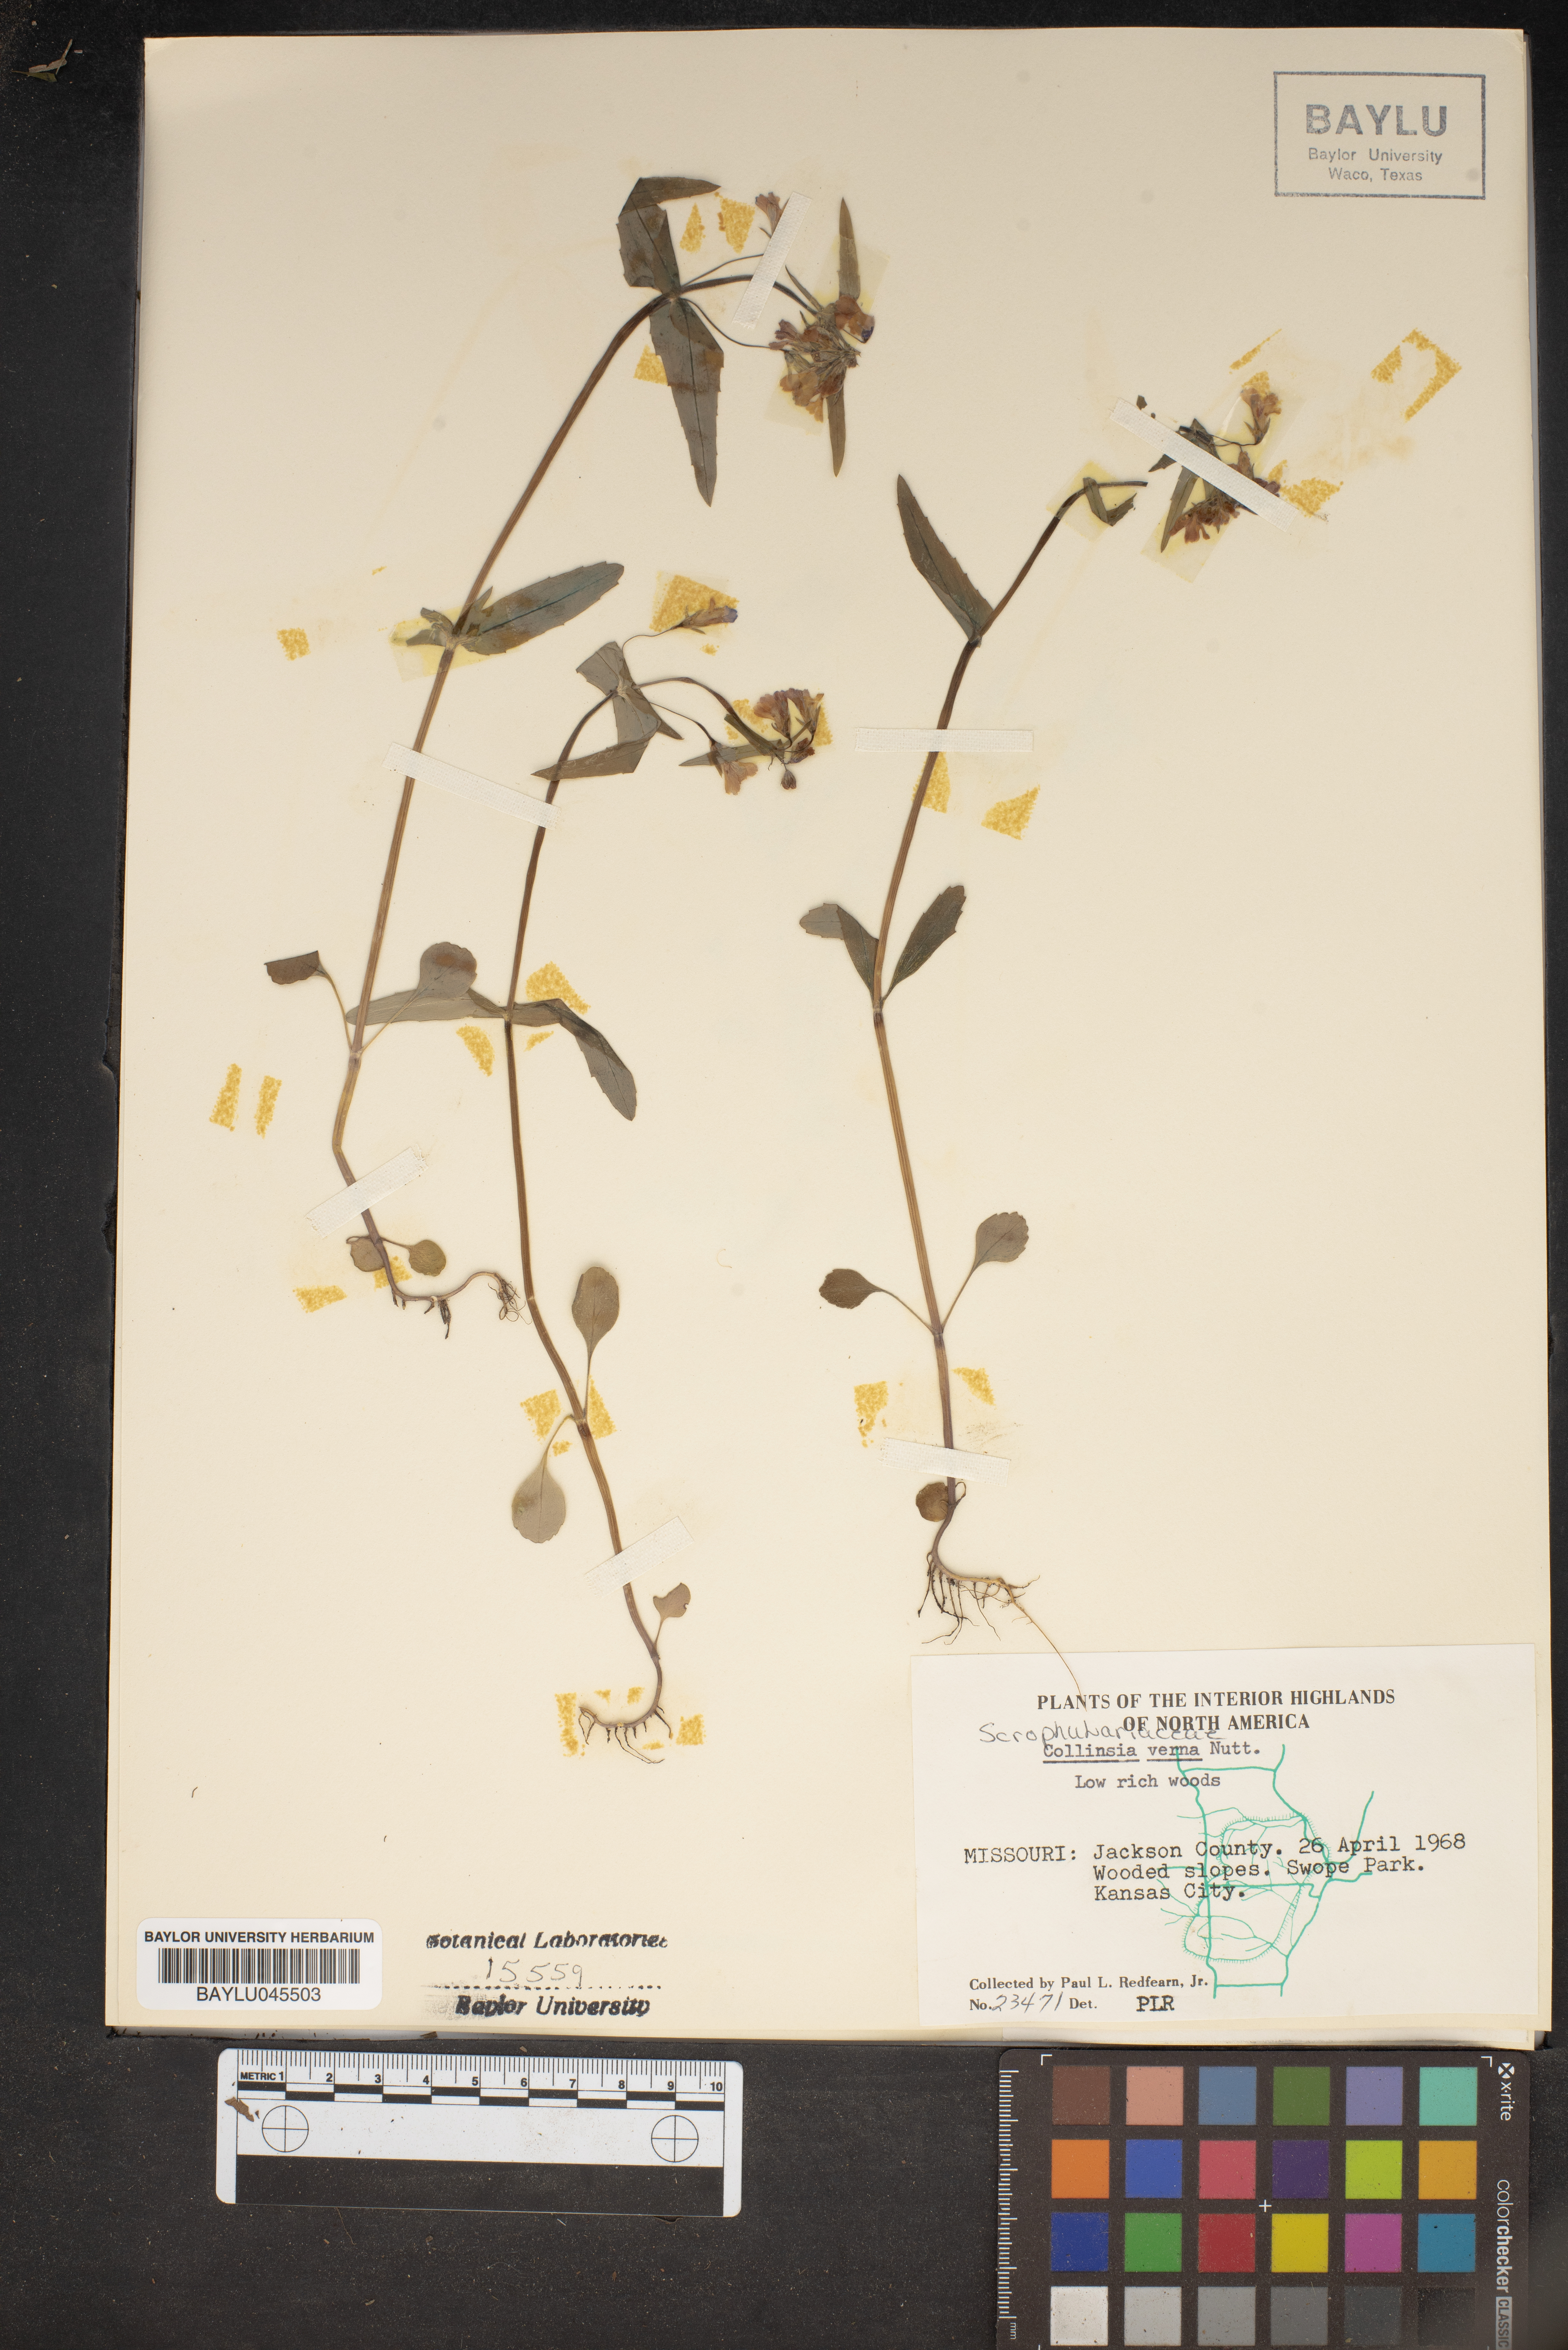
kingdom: Plantae
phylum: Tracheophyta
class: Magnoliopsida
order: Lamiales
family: Plantaginaceae
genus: Collinsia
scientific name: Collinsia verna
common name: Broad-leaved collinsia
